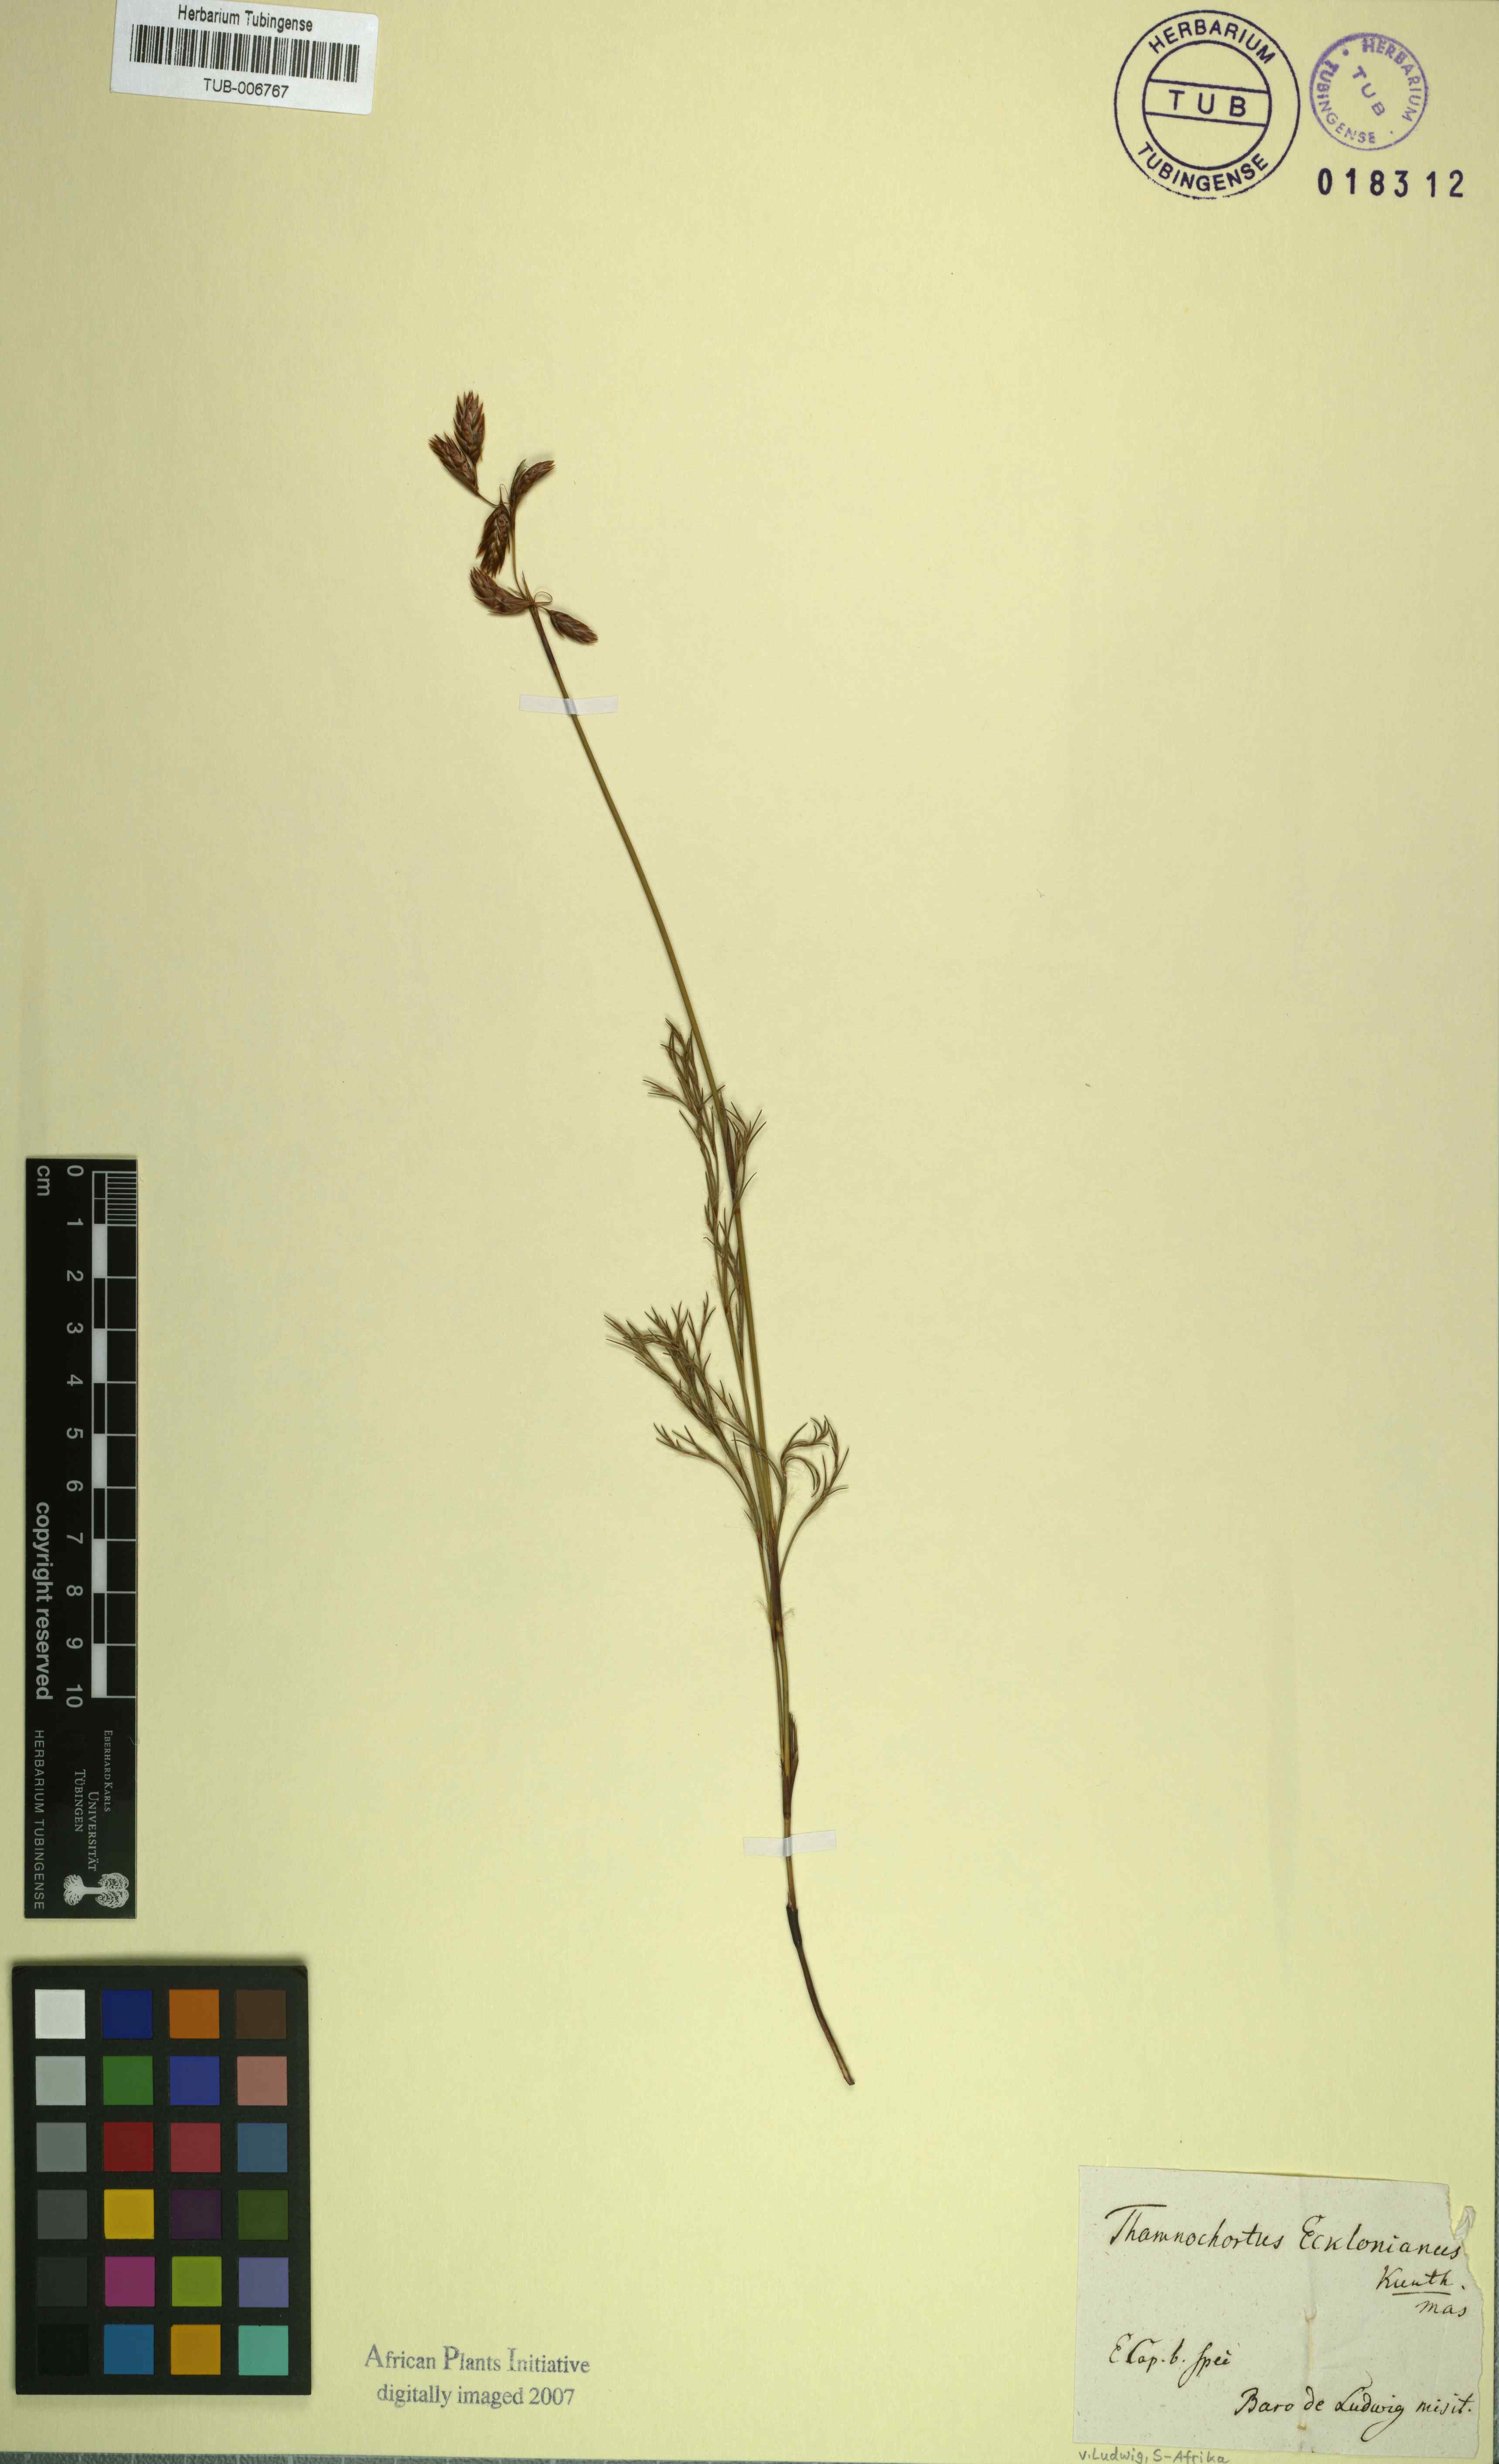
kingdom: Plantae
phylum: Tracheophyta
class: Liliopsida
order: Poales
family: Restionaceae
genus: Thamnochortus
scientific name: Thamnochortus dichotomus
